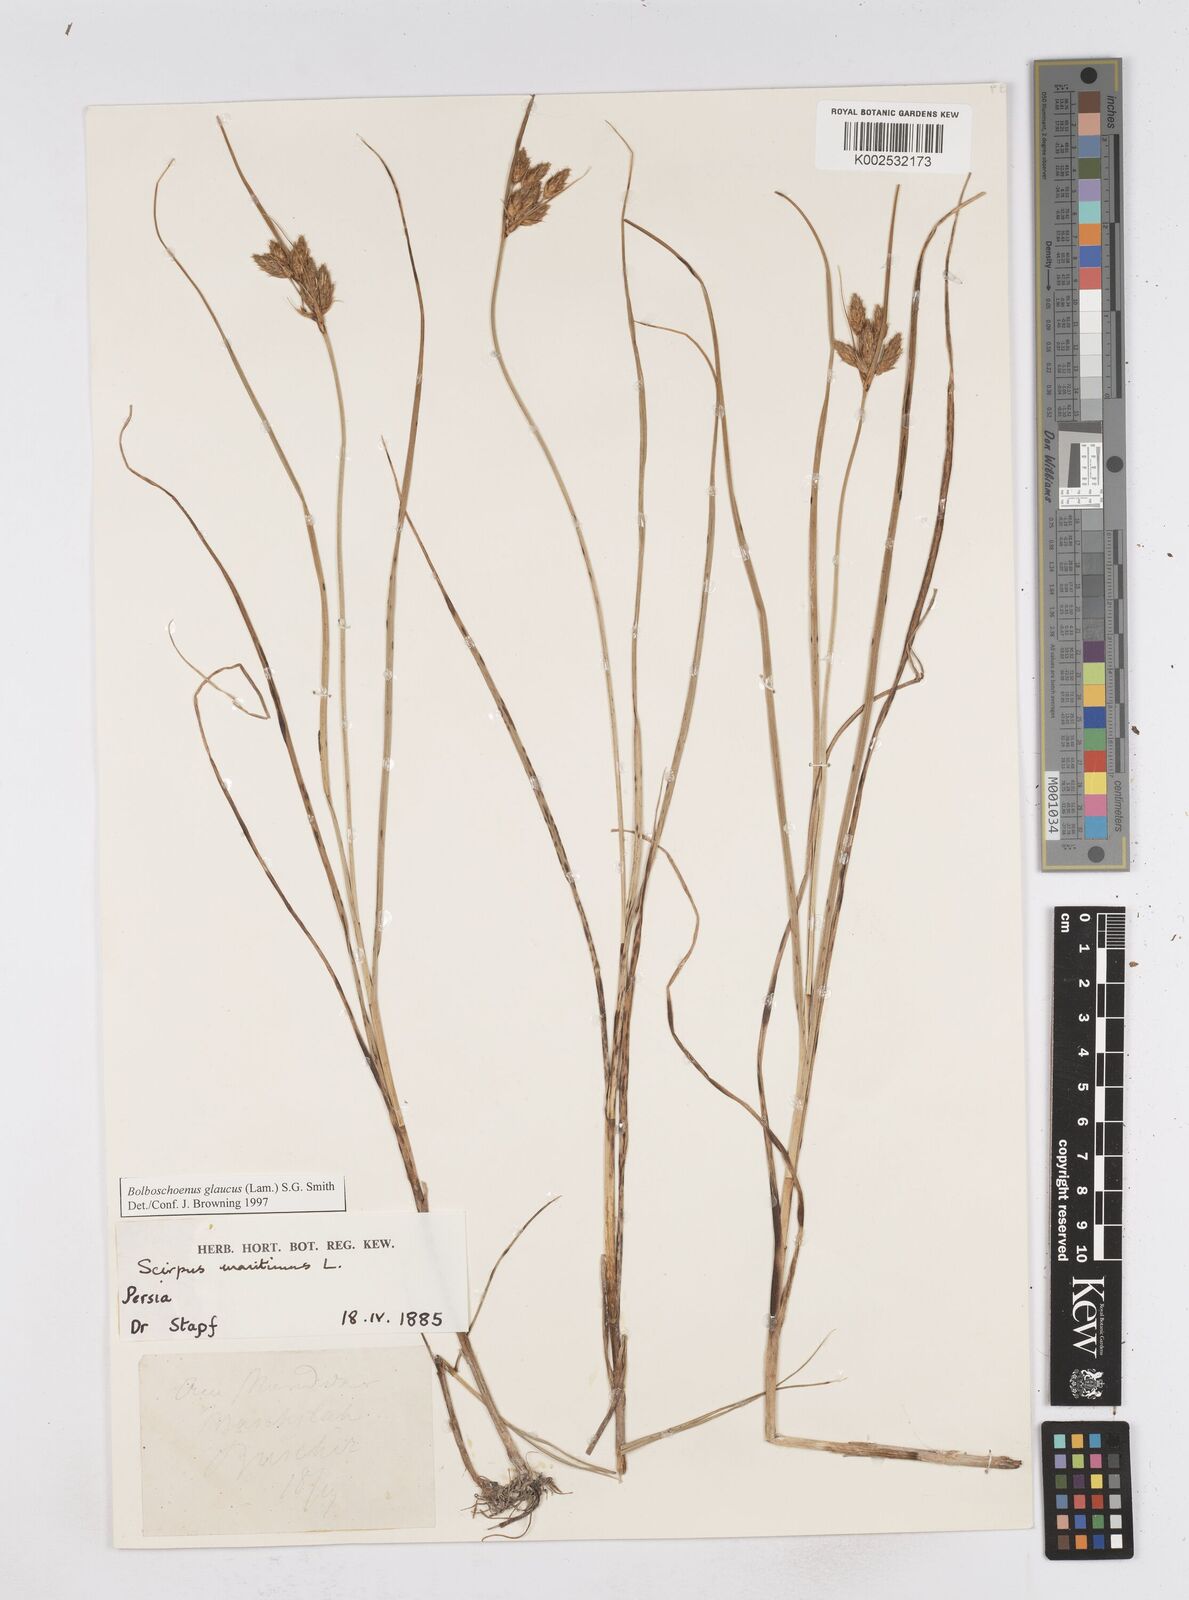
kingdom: Plantae
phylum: Tracheophyta
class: Liliopsida
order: Poales
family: Cyperaceae
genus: Bolboschoenus
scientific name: Bolboschoenus maritimus
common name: Sea club-rush
